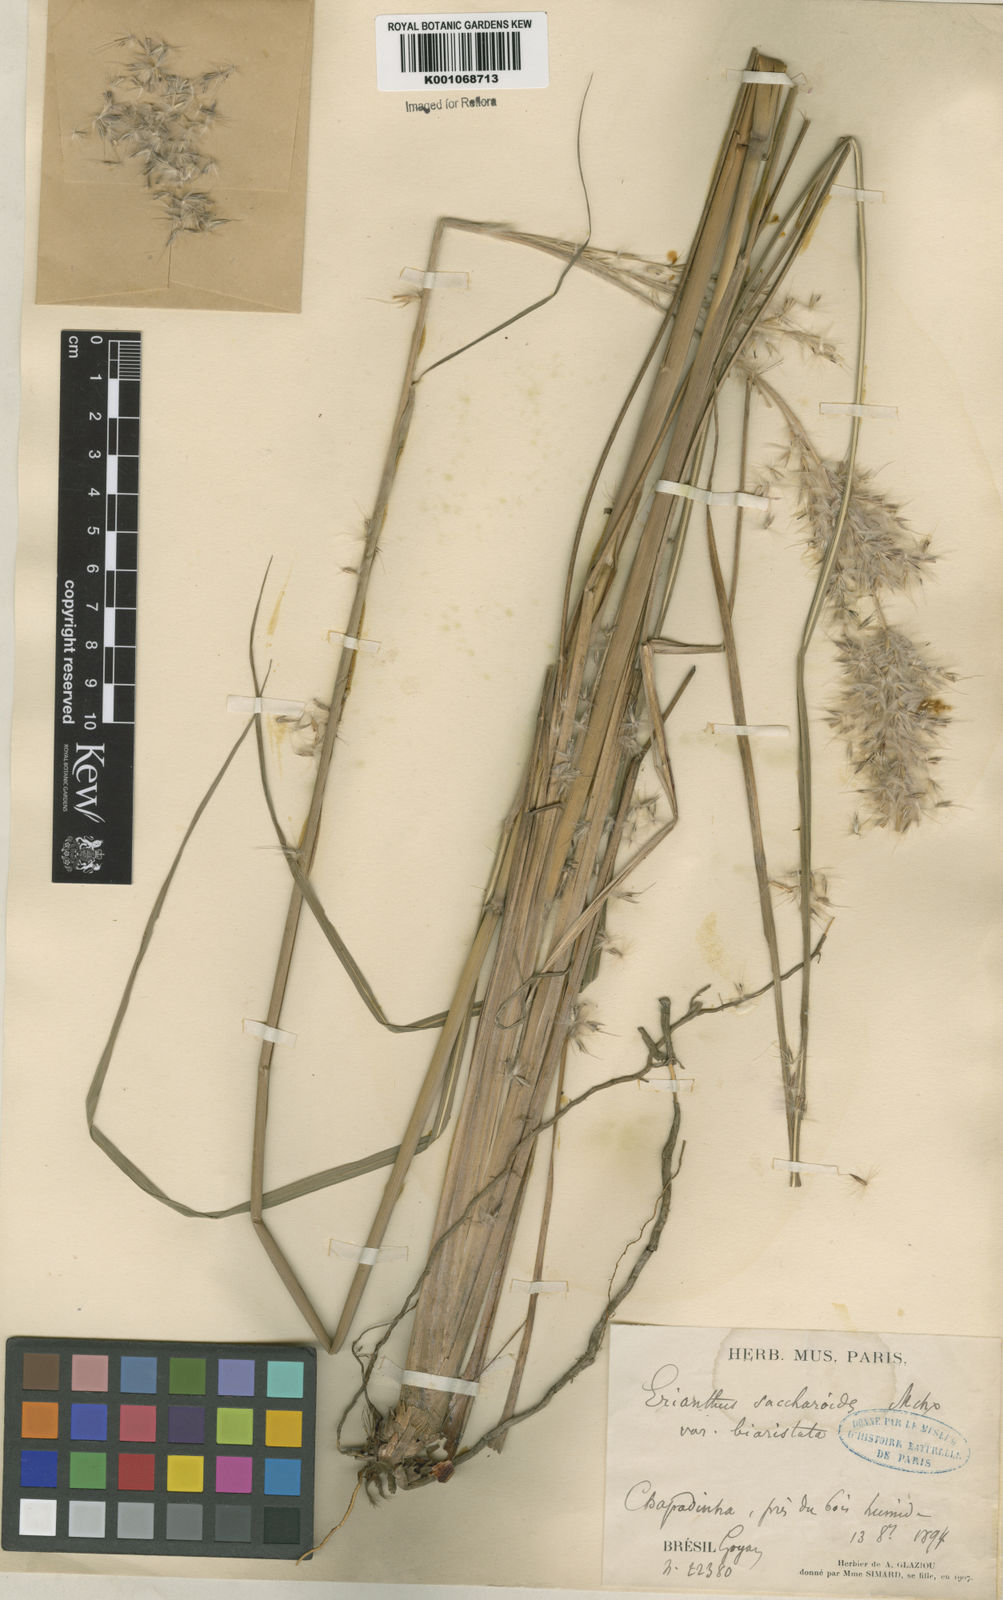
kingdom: Plantae
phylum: Tracheophyta
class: Liliopsida
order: Poales
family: Poaceae
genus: Saccharum
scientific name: Saccharum angustifolium
